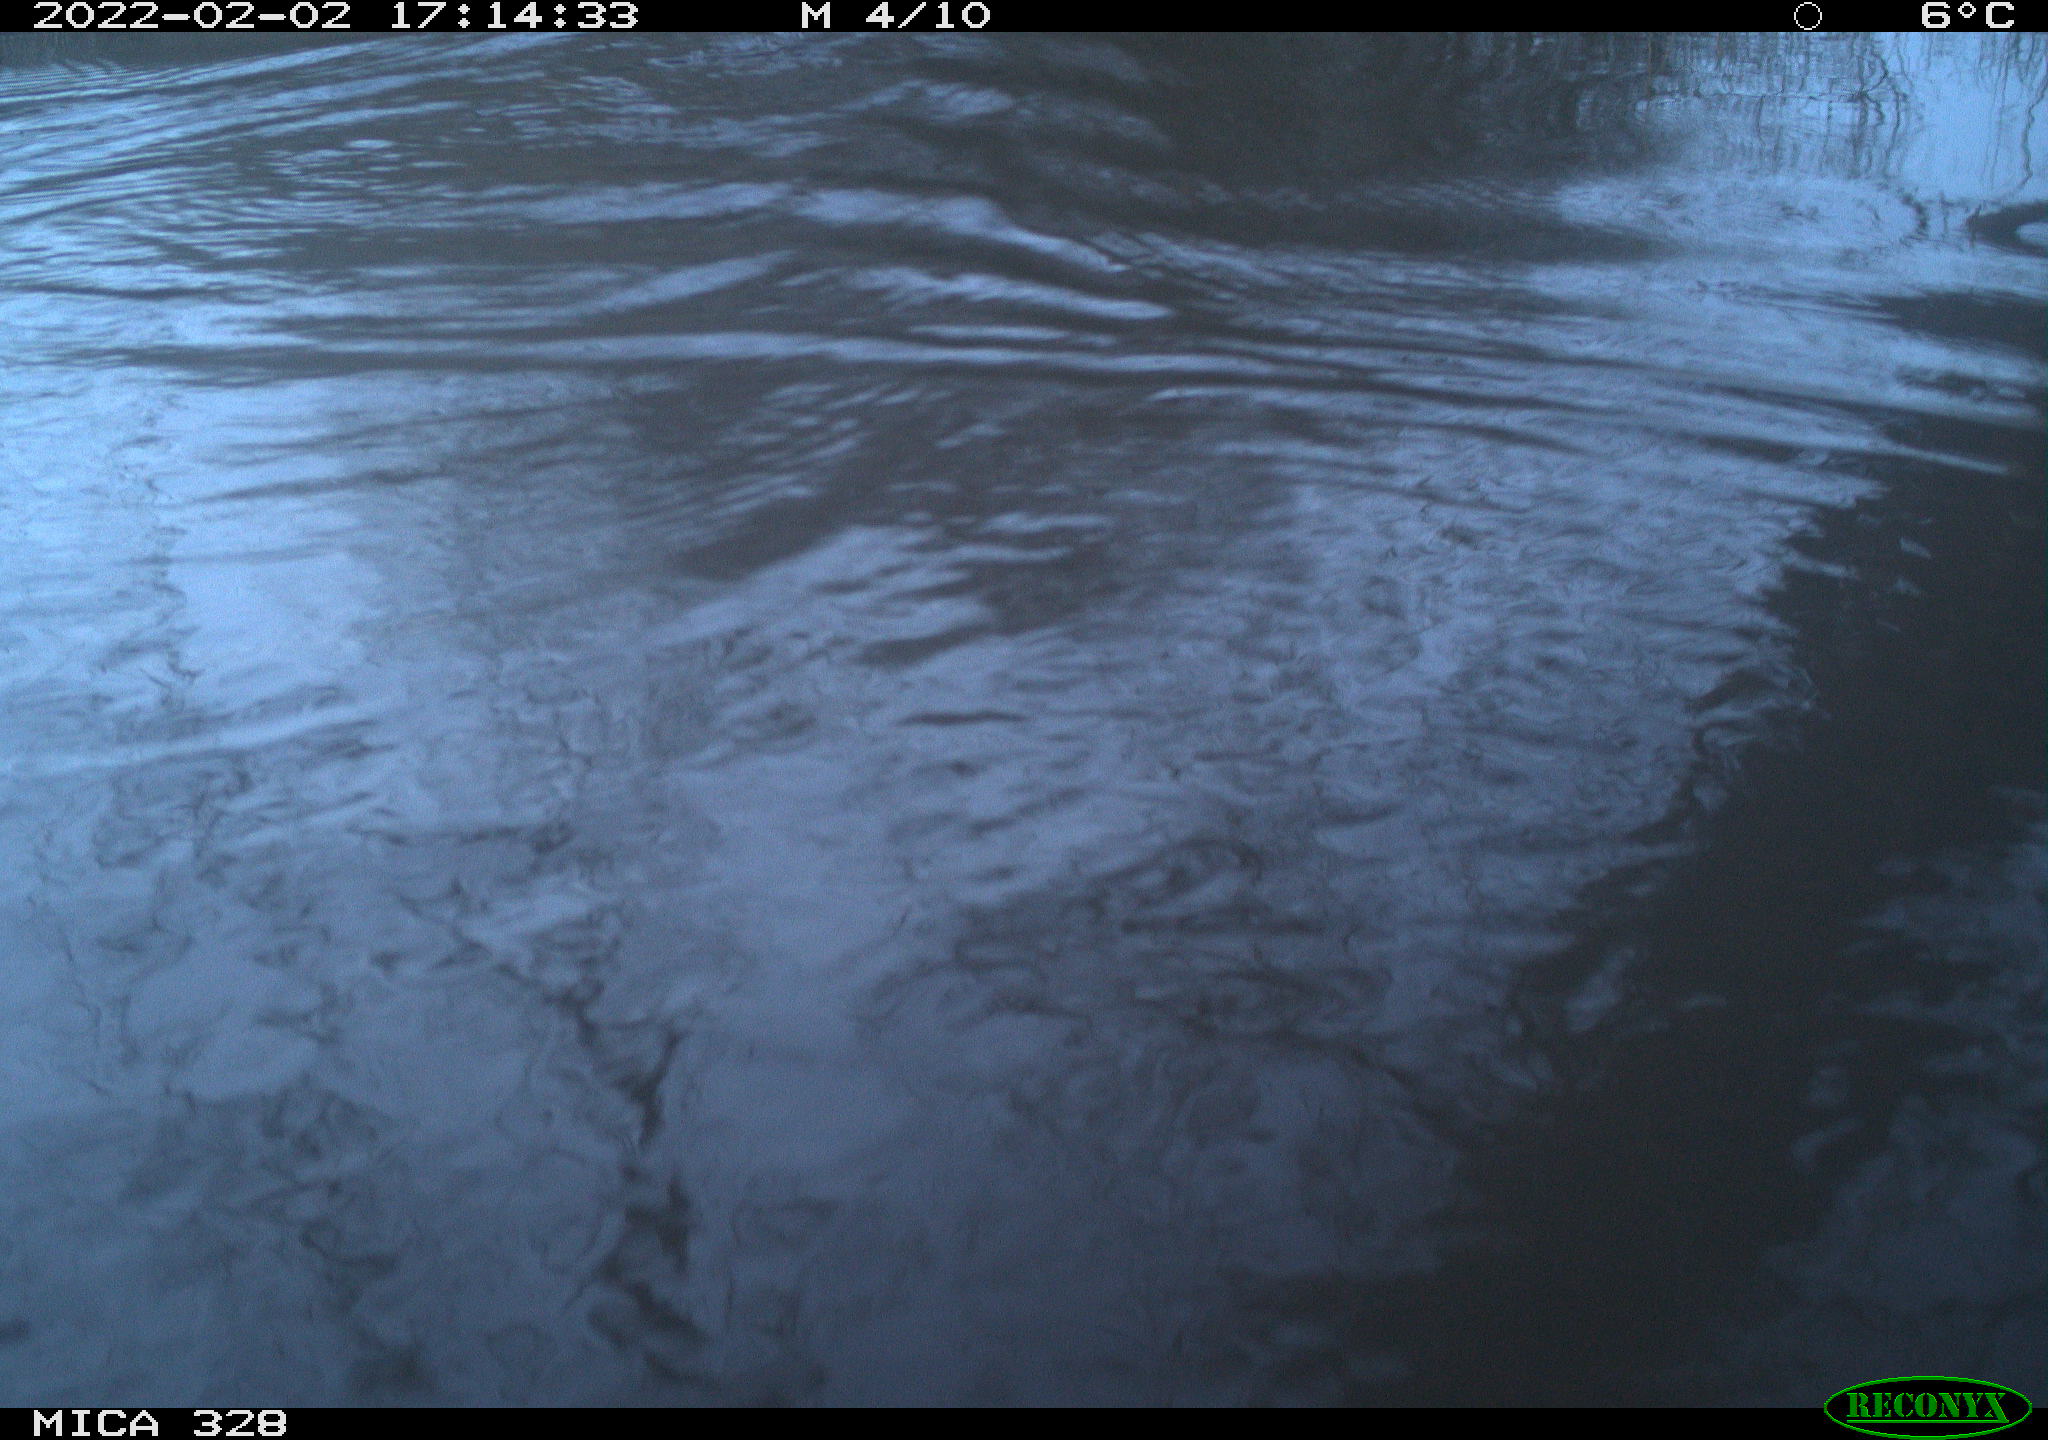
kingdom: Animalia
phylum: Chordata
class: Mammalia
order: Rodentia
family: Cricetidae
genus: Ondatra
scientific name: Ondatra zibethicus
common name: Muskrat
